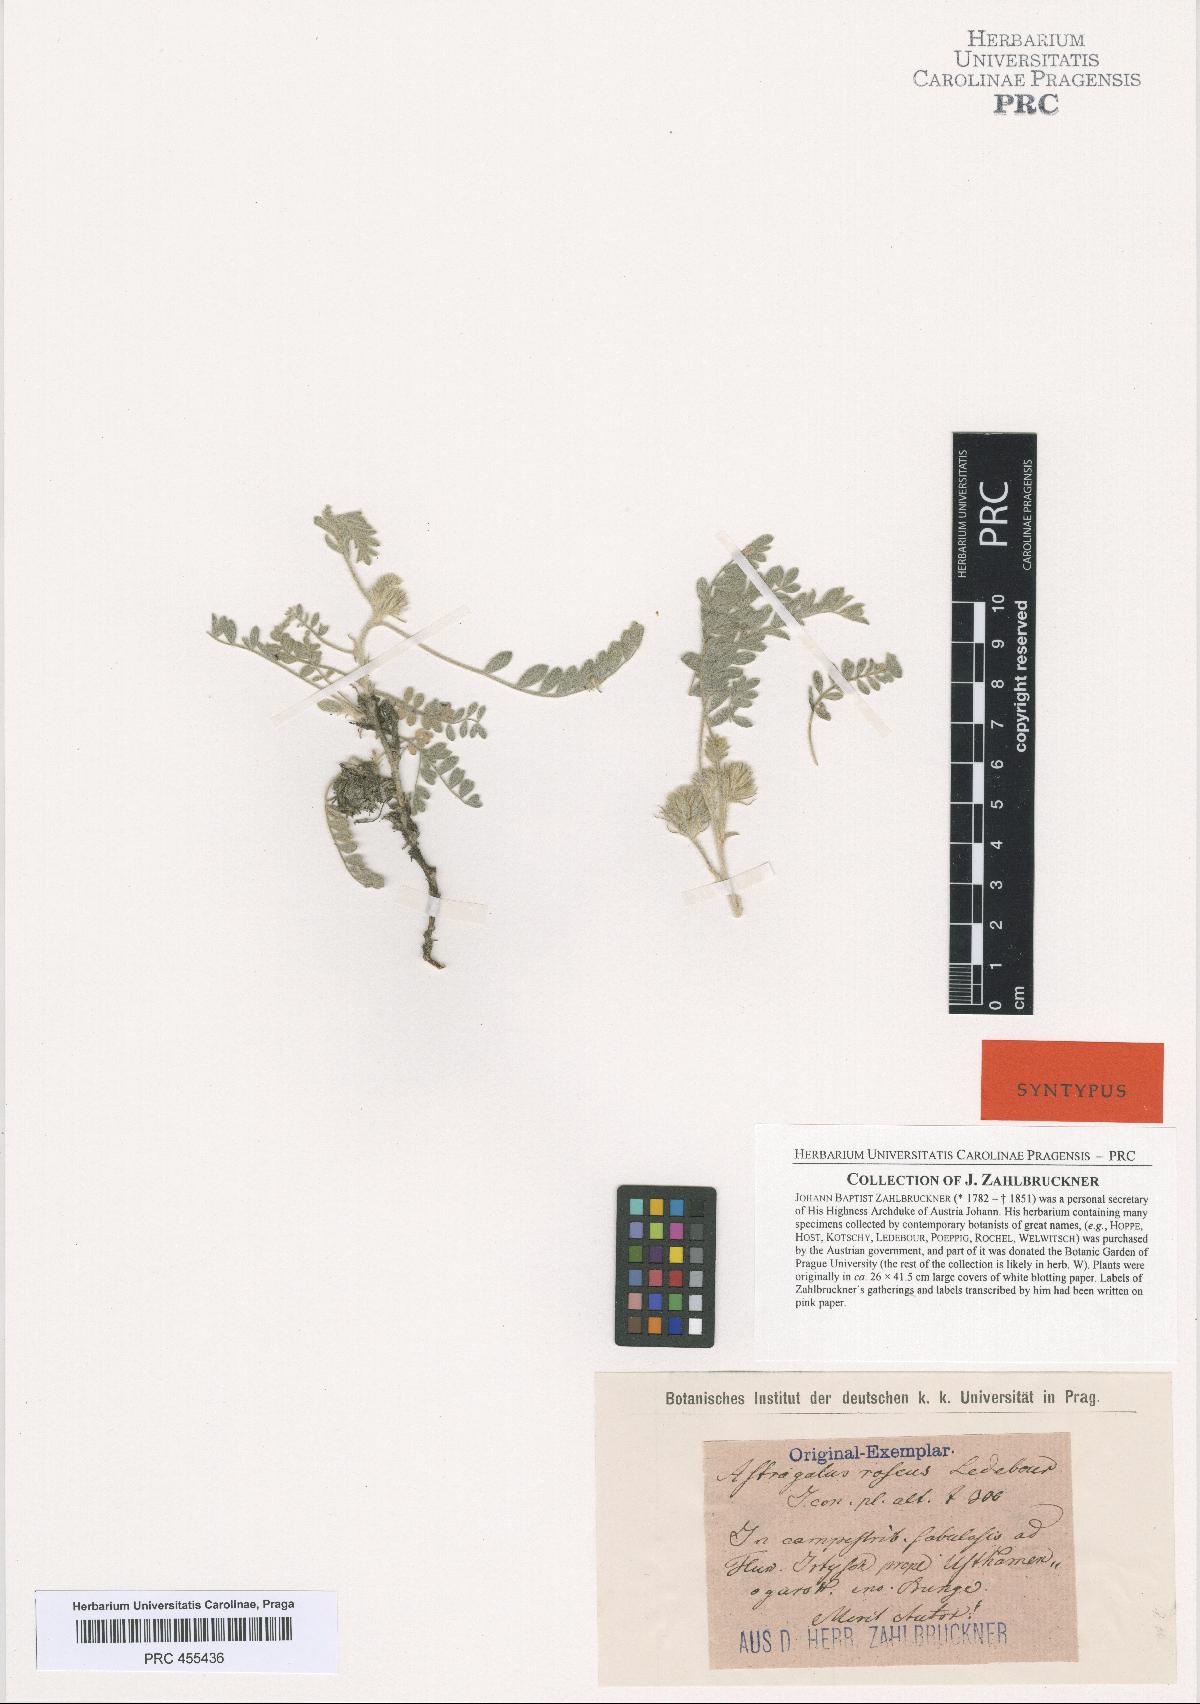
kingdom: Plantae
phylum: Tracheophyta
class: Magnoliopsida
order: Fabales
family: Fabaceae
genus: Astragalus
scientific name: Astragalus roseus
